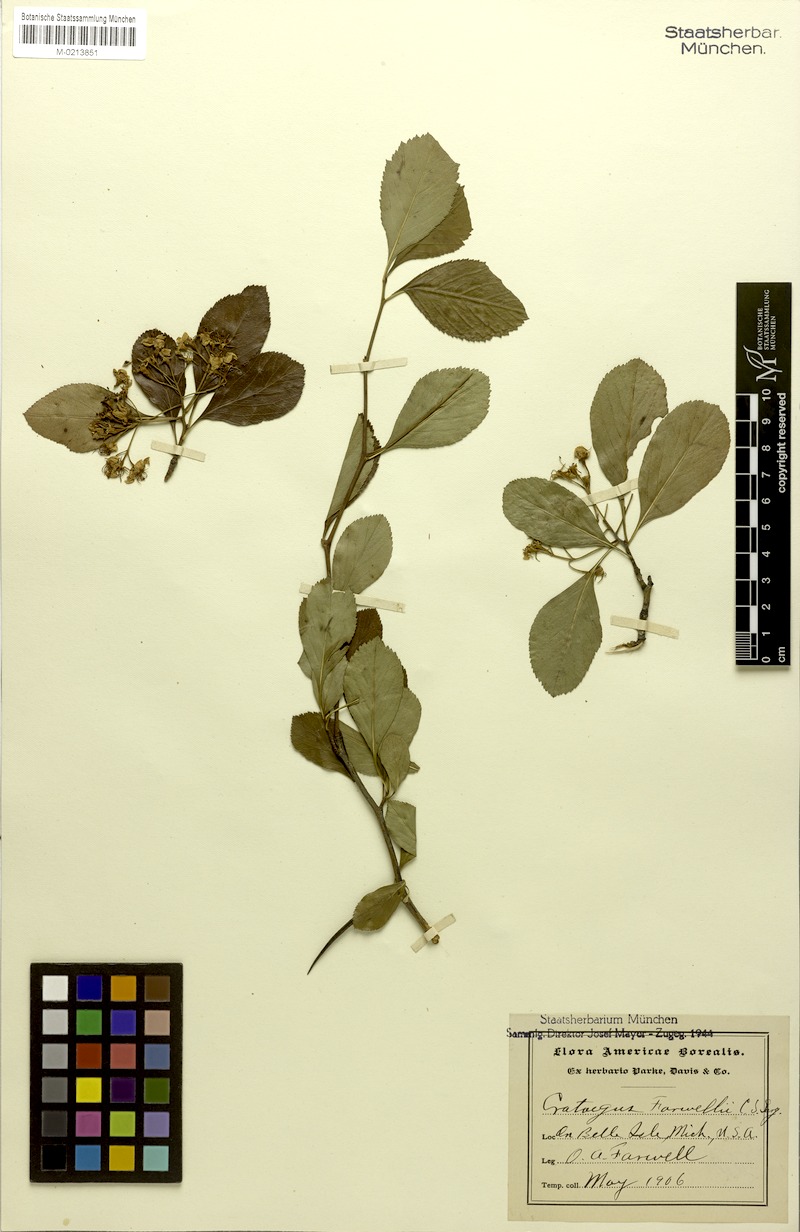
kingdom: Plantae
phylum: Tracheophyta
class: Magnoliopsida
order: Rosales
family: Rosaceae
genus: Crataegus
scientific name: Crataegus farwelli
